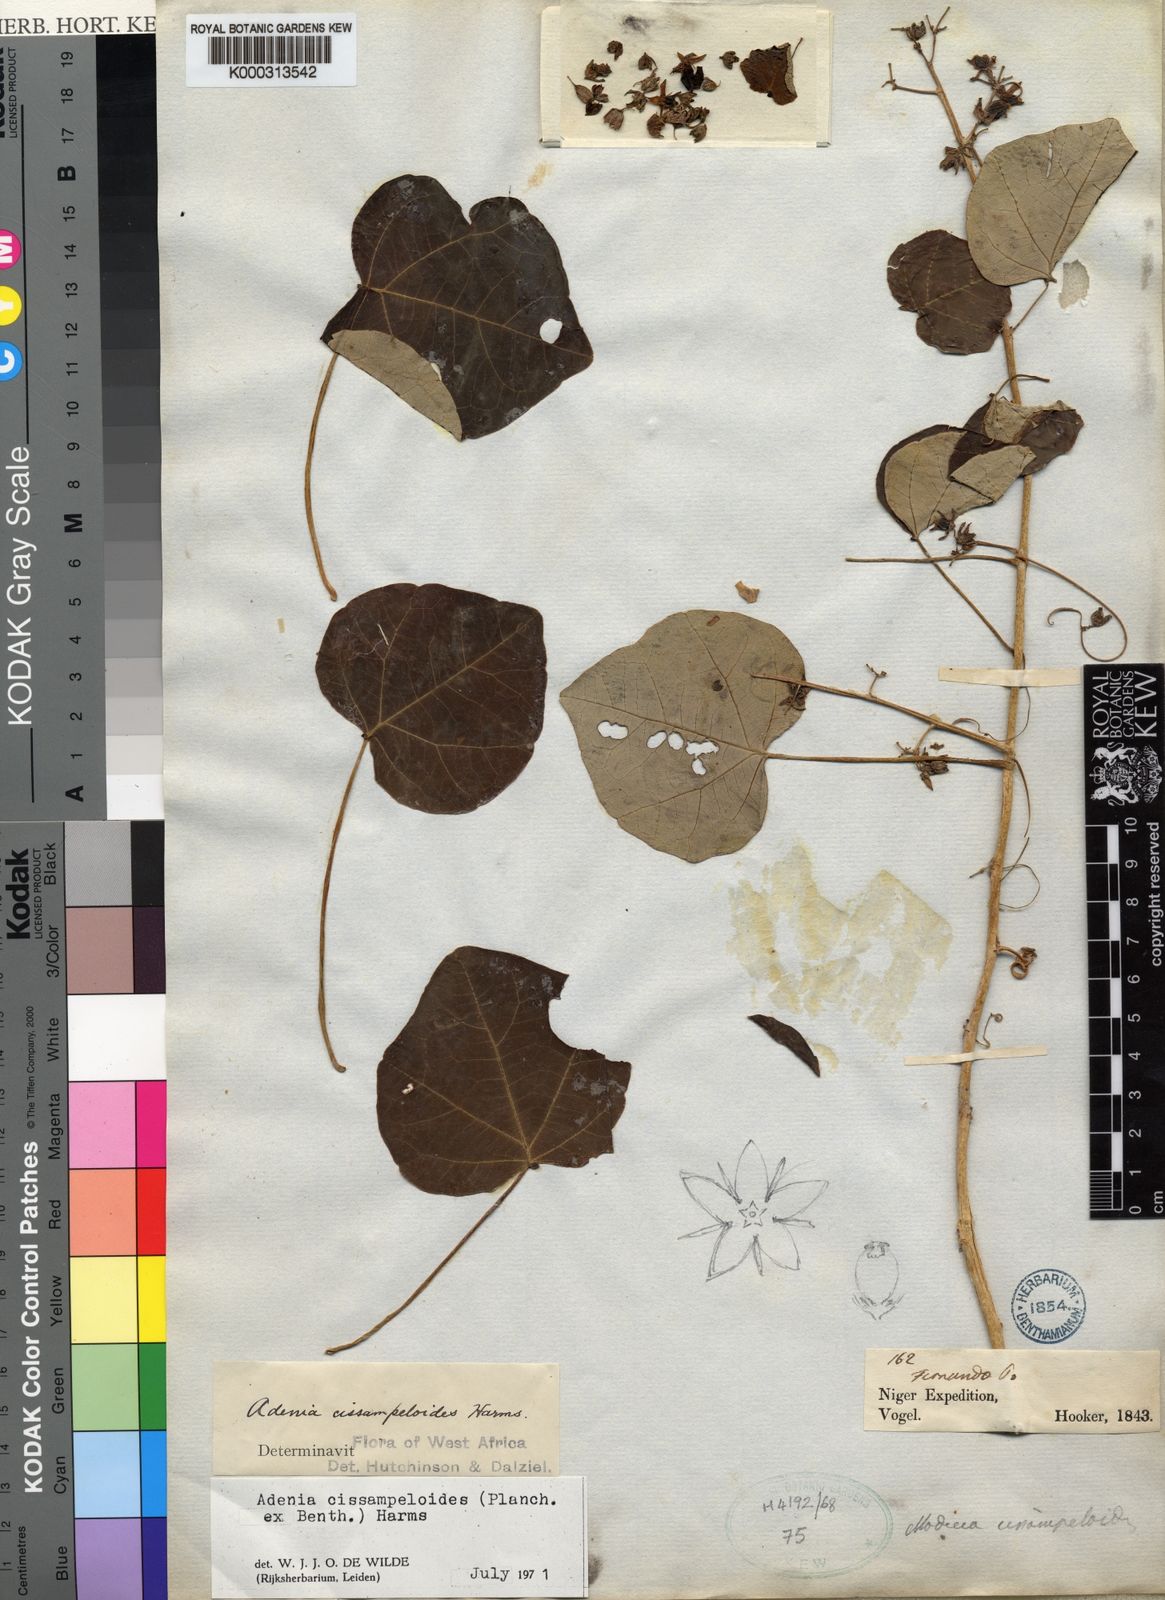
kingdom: Plantae
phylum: Tracheophyta
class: Magnoliopsida
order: Malpighiales
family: Passifloraceae
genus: Adenia
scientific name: Adenia cissampeloides
